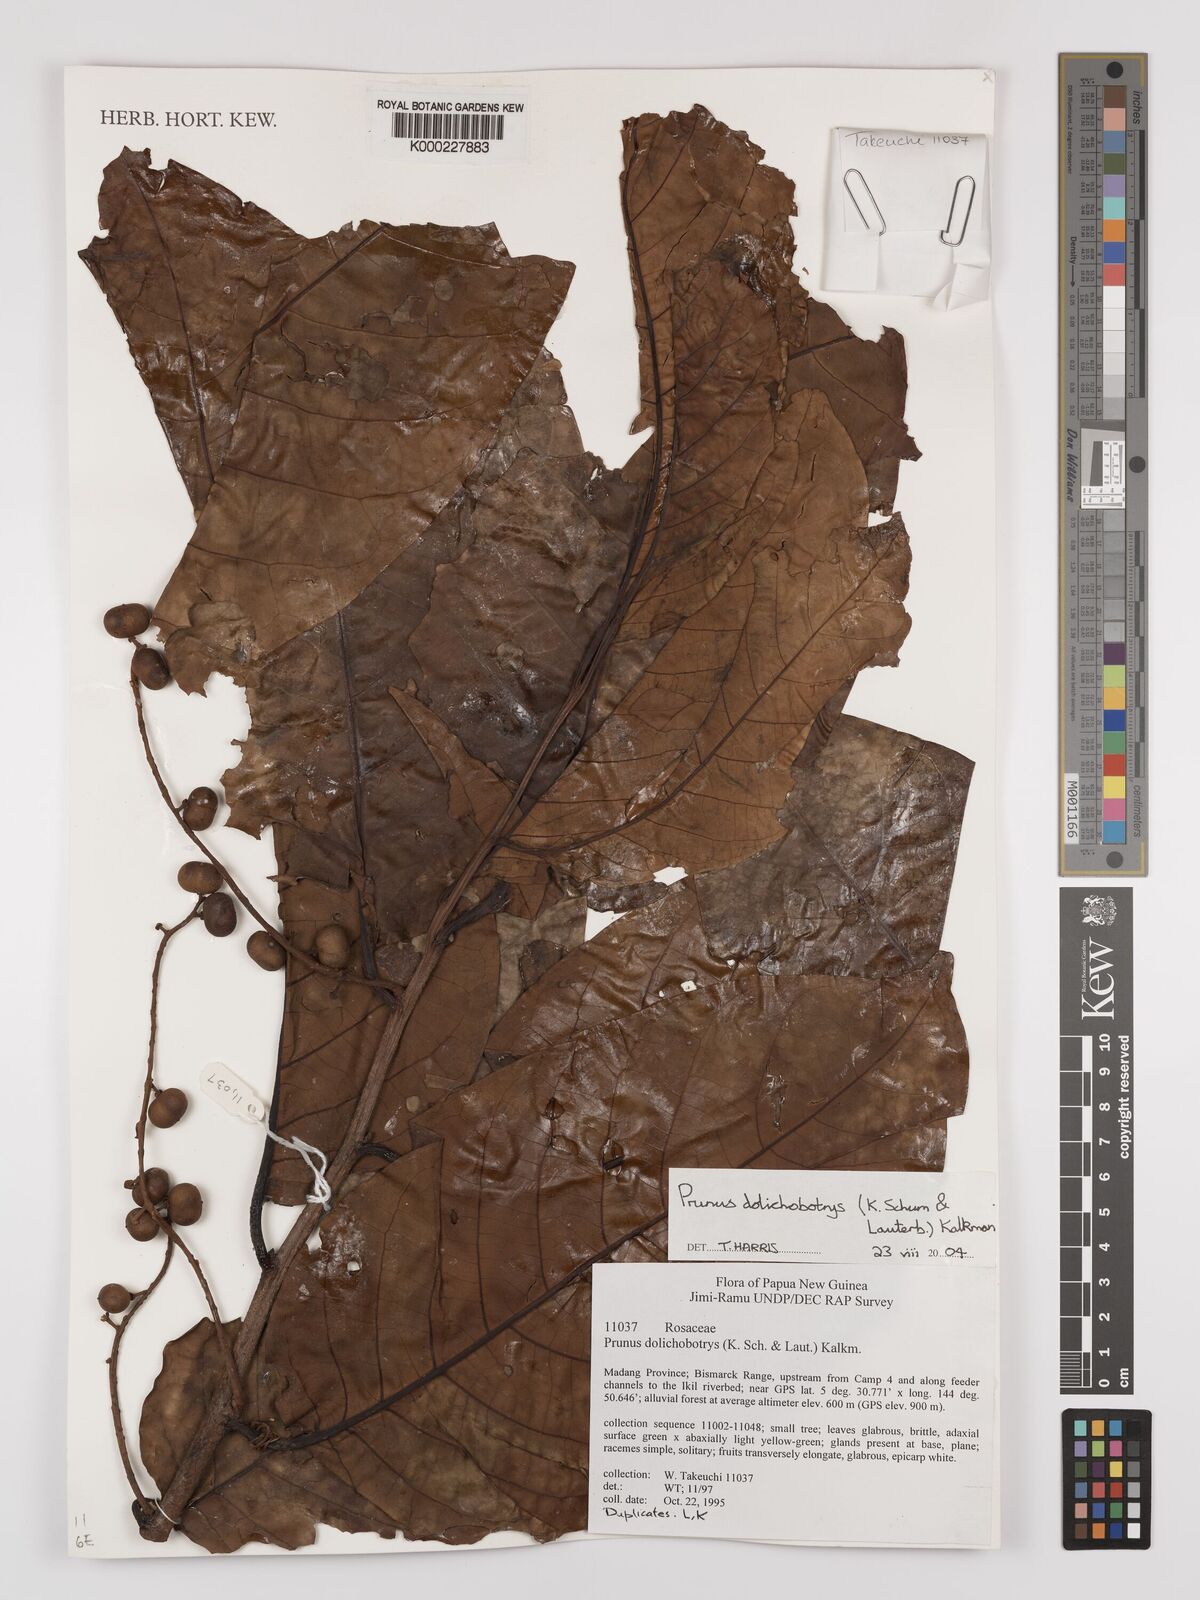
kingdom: Plantae
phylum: Tracheophyta
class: Magnoliopsida
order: Rosales
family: Rosaceae
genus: Prunus
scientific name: Prunus dolichobotrys
